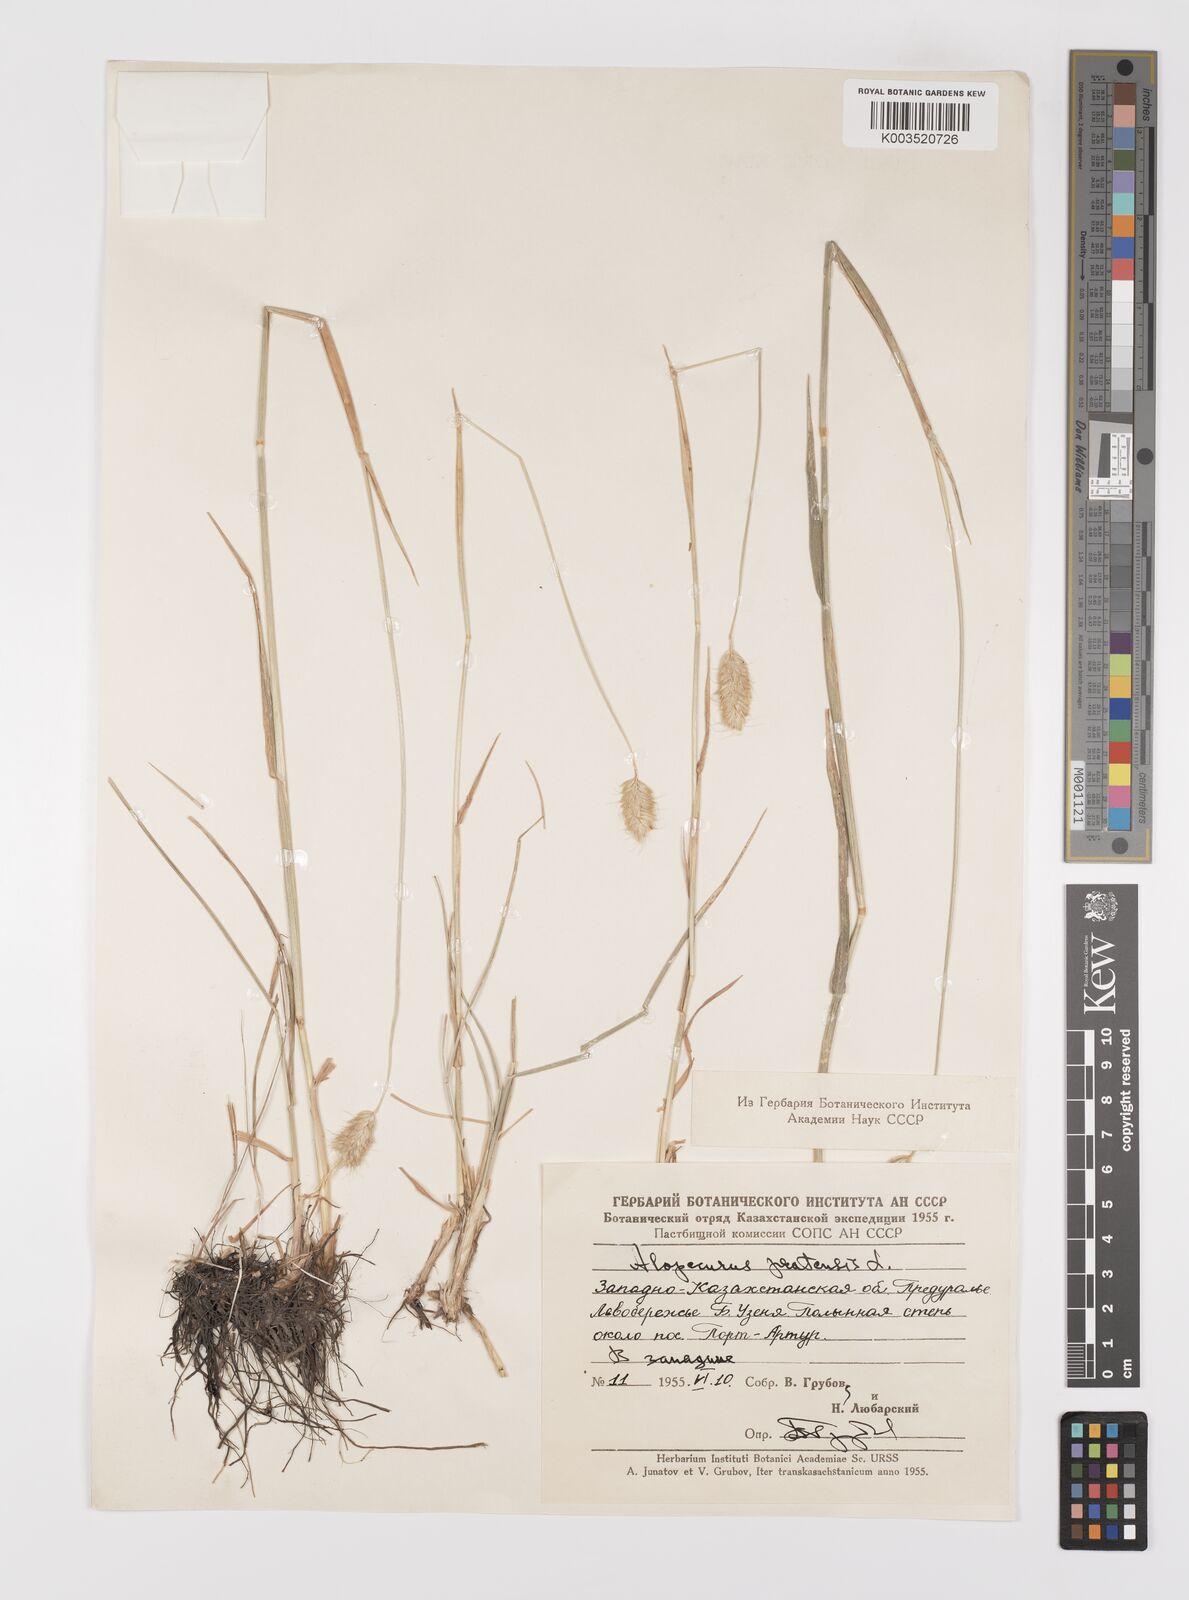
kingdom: Plantae
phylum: Tracheophyta
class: Liliopsida
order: Poales
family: Poaceae
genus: Alopecurus
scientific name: Alopecurus pratensis
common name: Meadow foxtail
